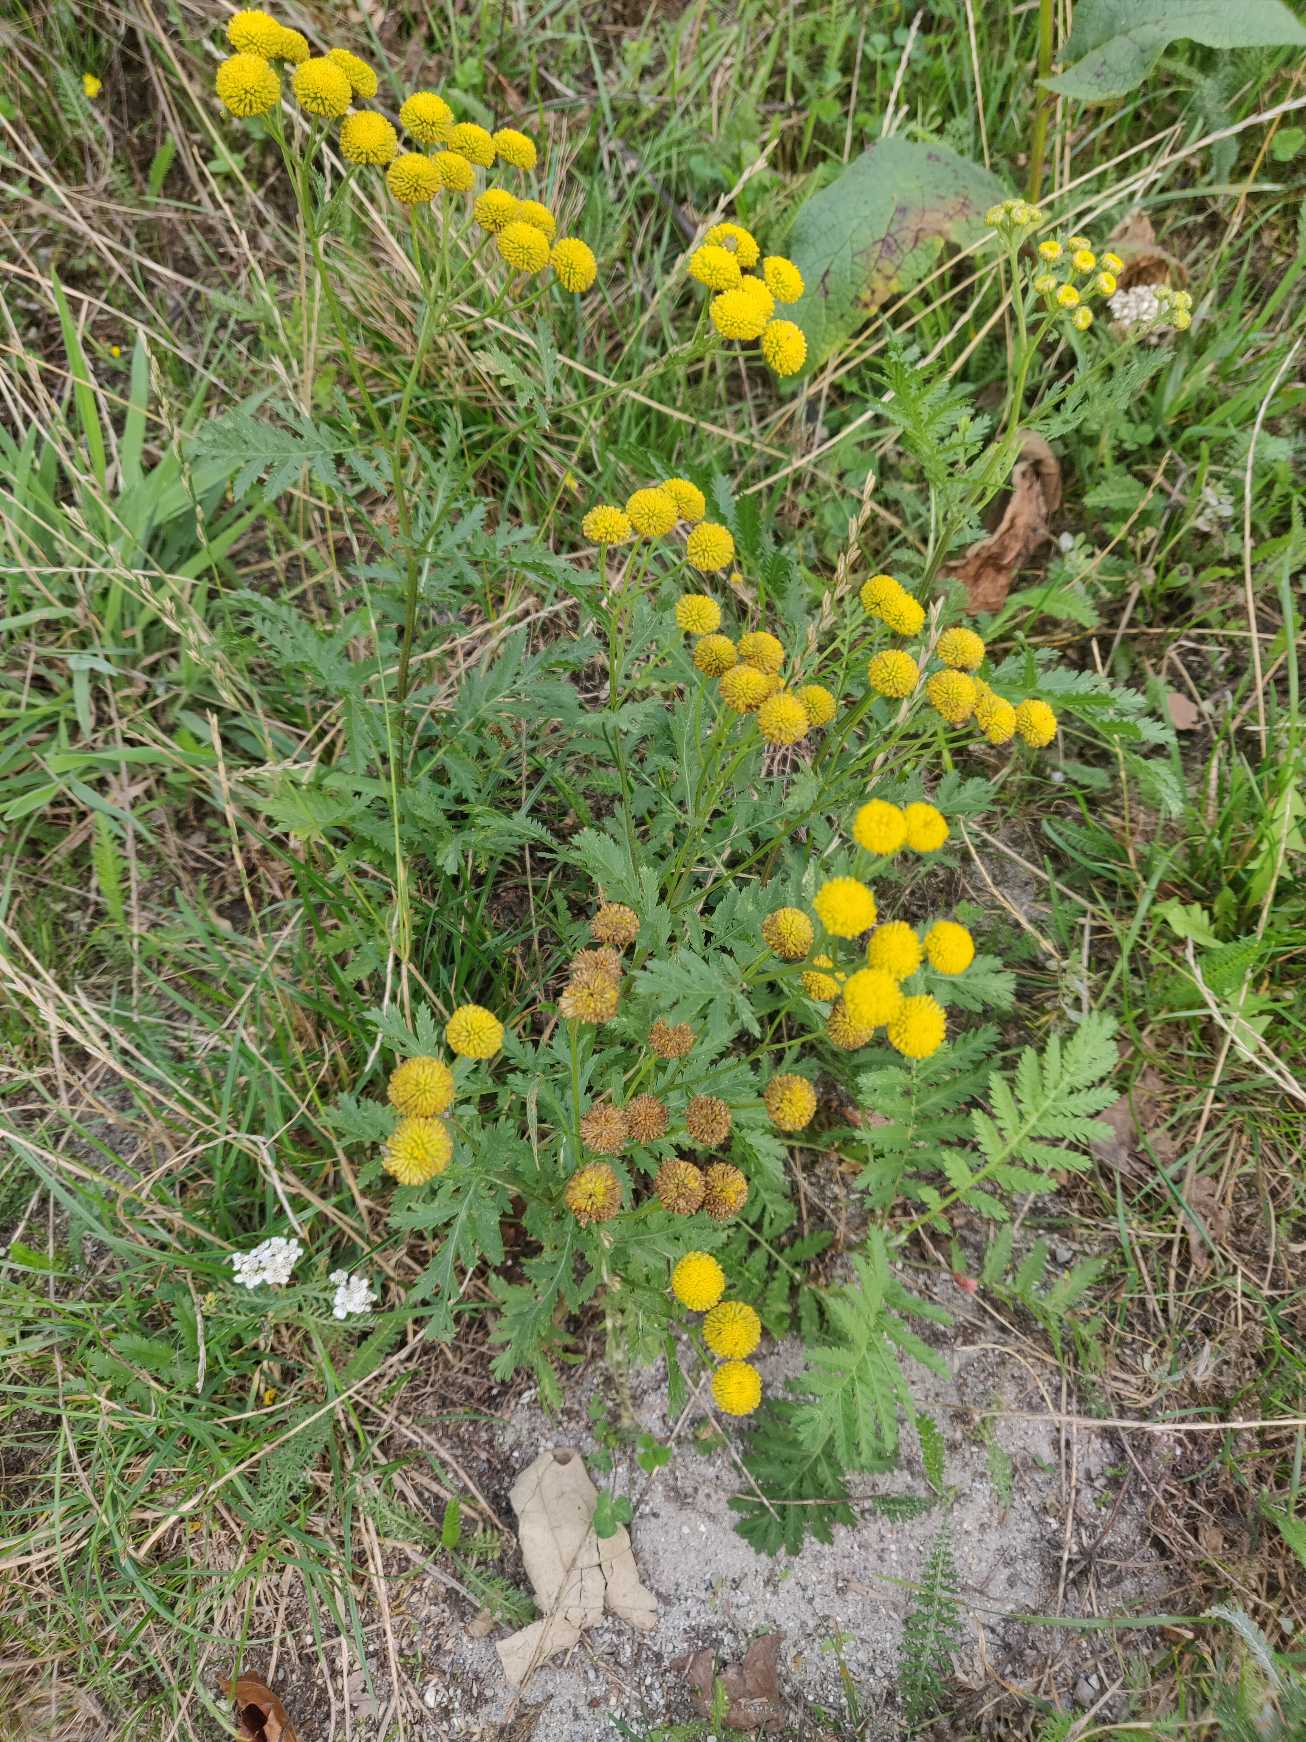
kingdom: Plantae
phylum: Tracheophyta
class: Magnoliopsida
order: Asterales
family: Asteraceae
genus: Tanacetum
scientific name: Tanacetum vulgare
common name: Rejnfan
